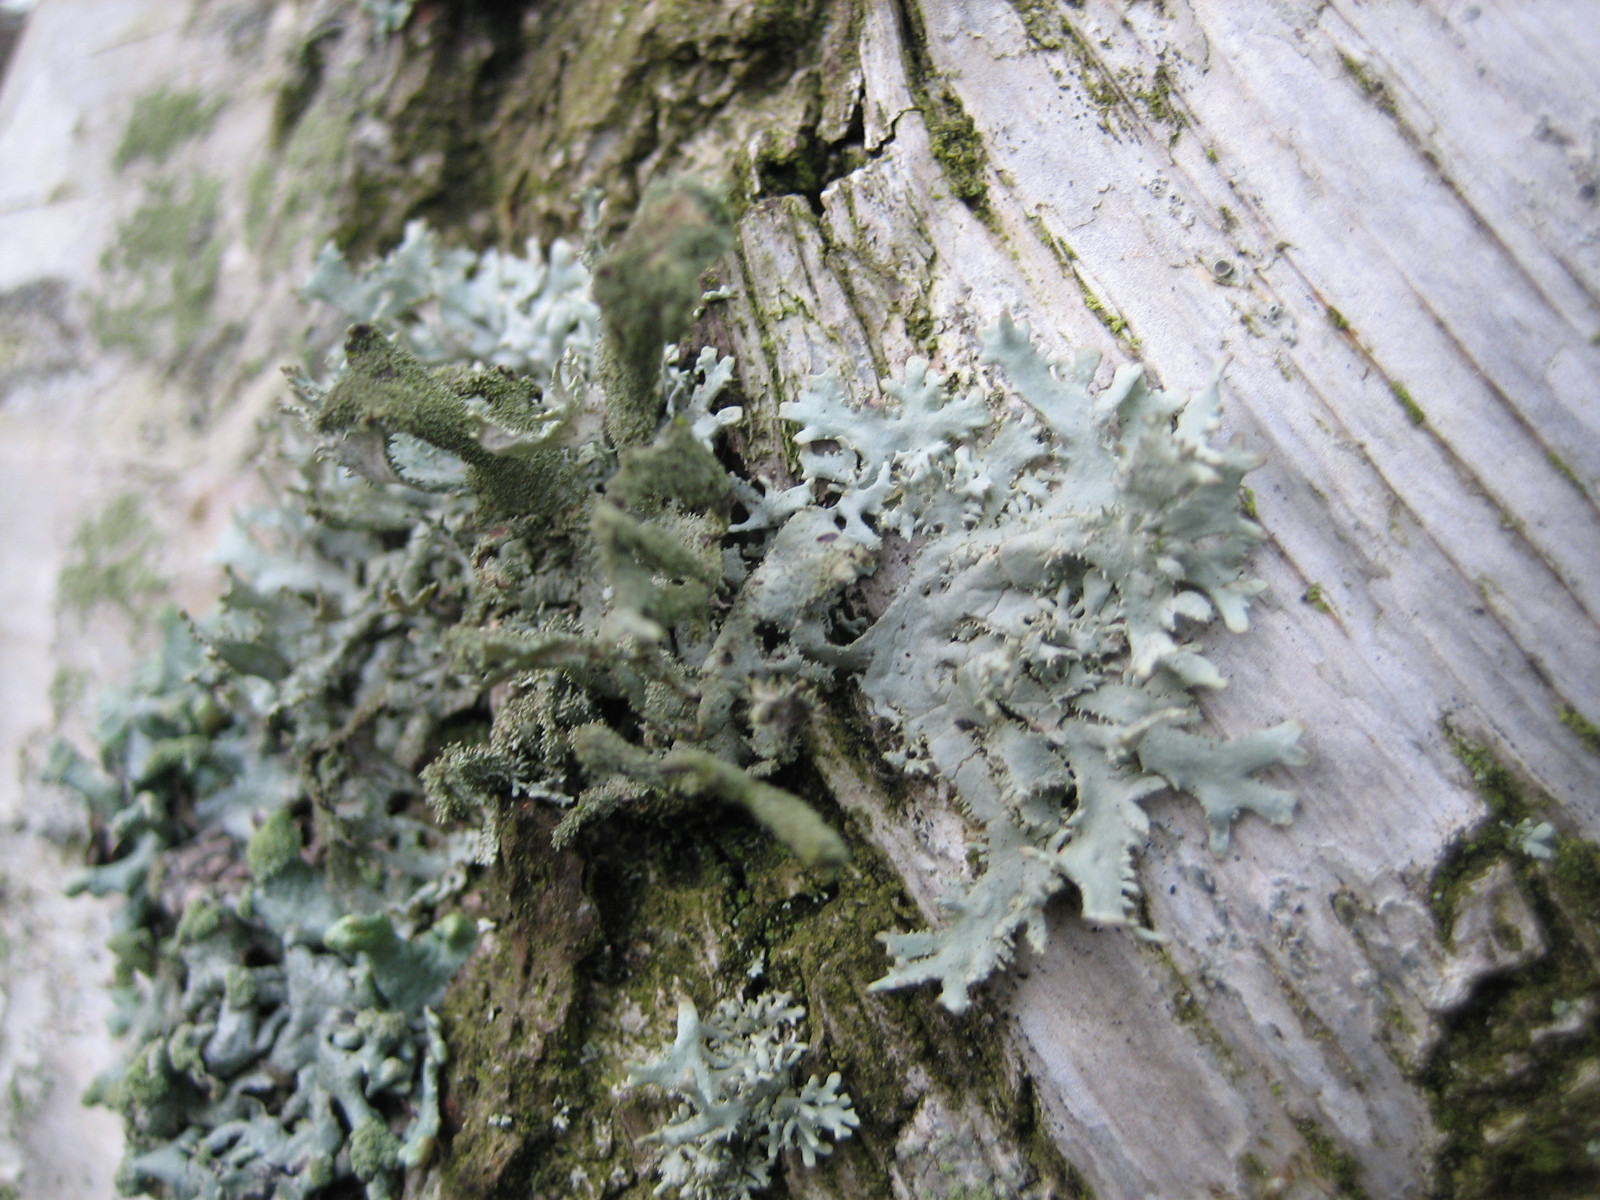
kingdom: Fungi
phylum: Ascomycota
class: Lecanoromycetes
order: Lecanorales
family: Parmeliaceae
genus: Pseudevernia
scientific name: Pseudevernia furfuracea
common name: grå fyrrelav
